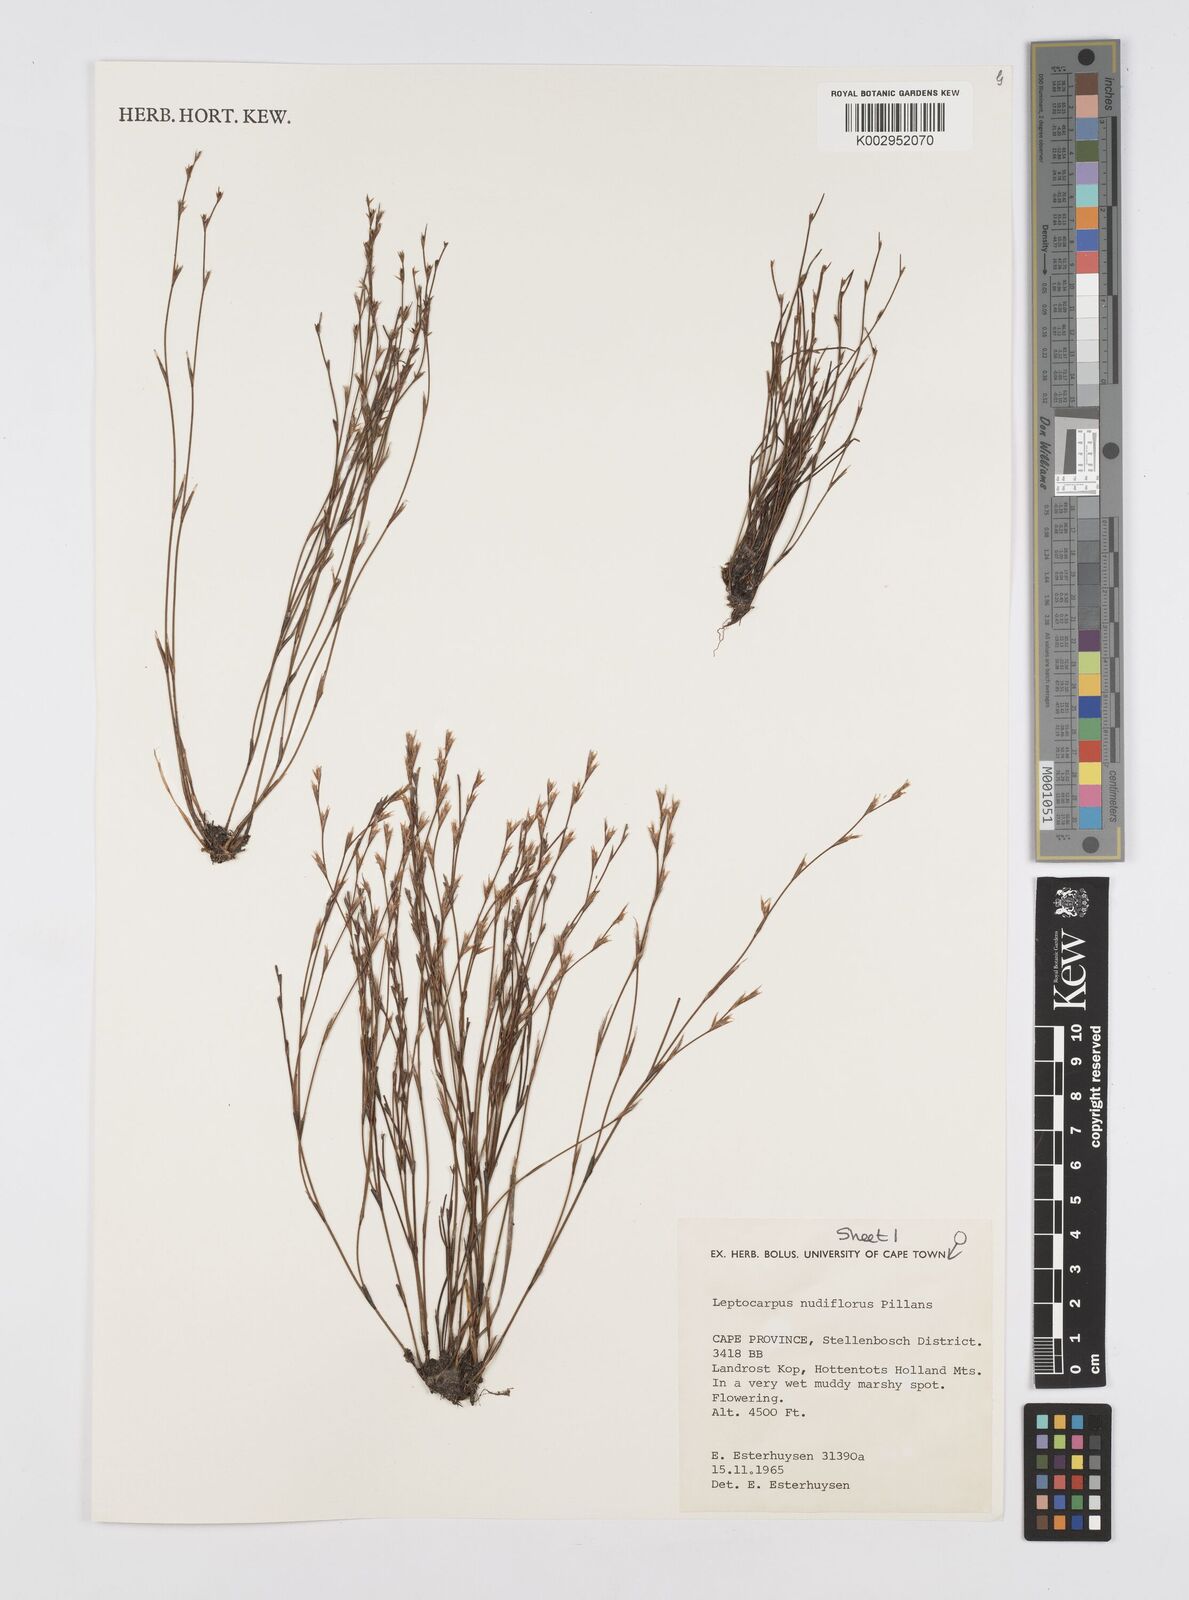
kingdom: Plantae
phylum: Tracheophyta
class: Liliopsida
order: Poales
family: Restionaceae
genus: Restio
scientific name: Restio nudiflorus
